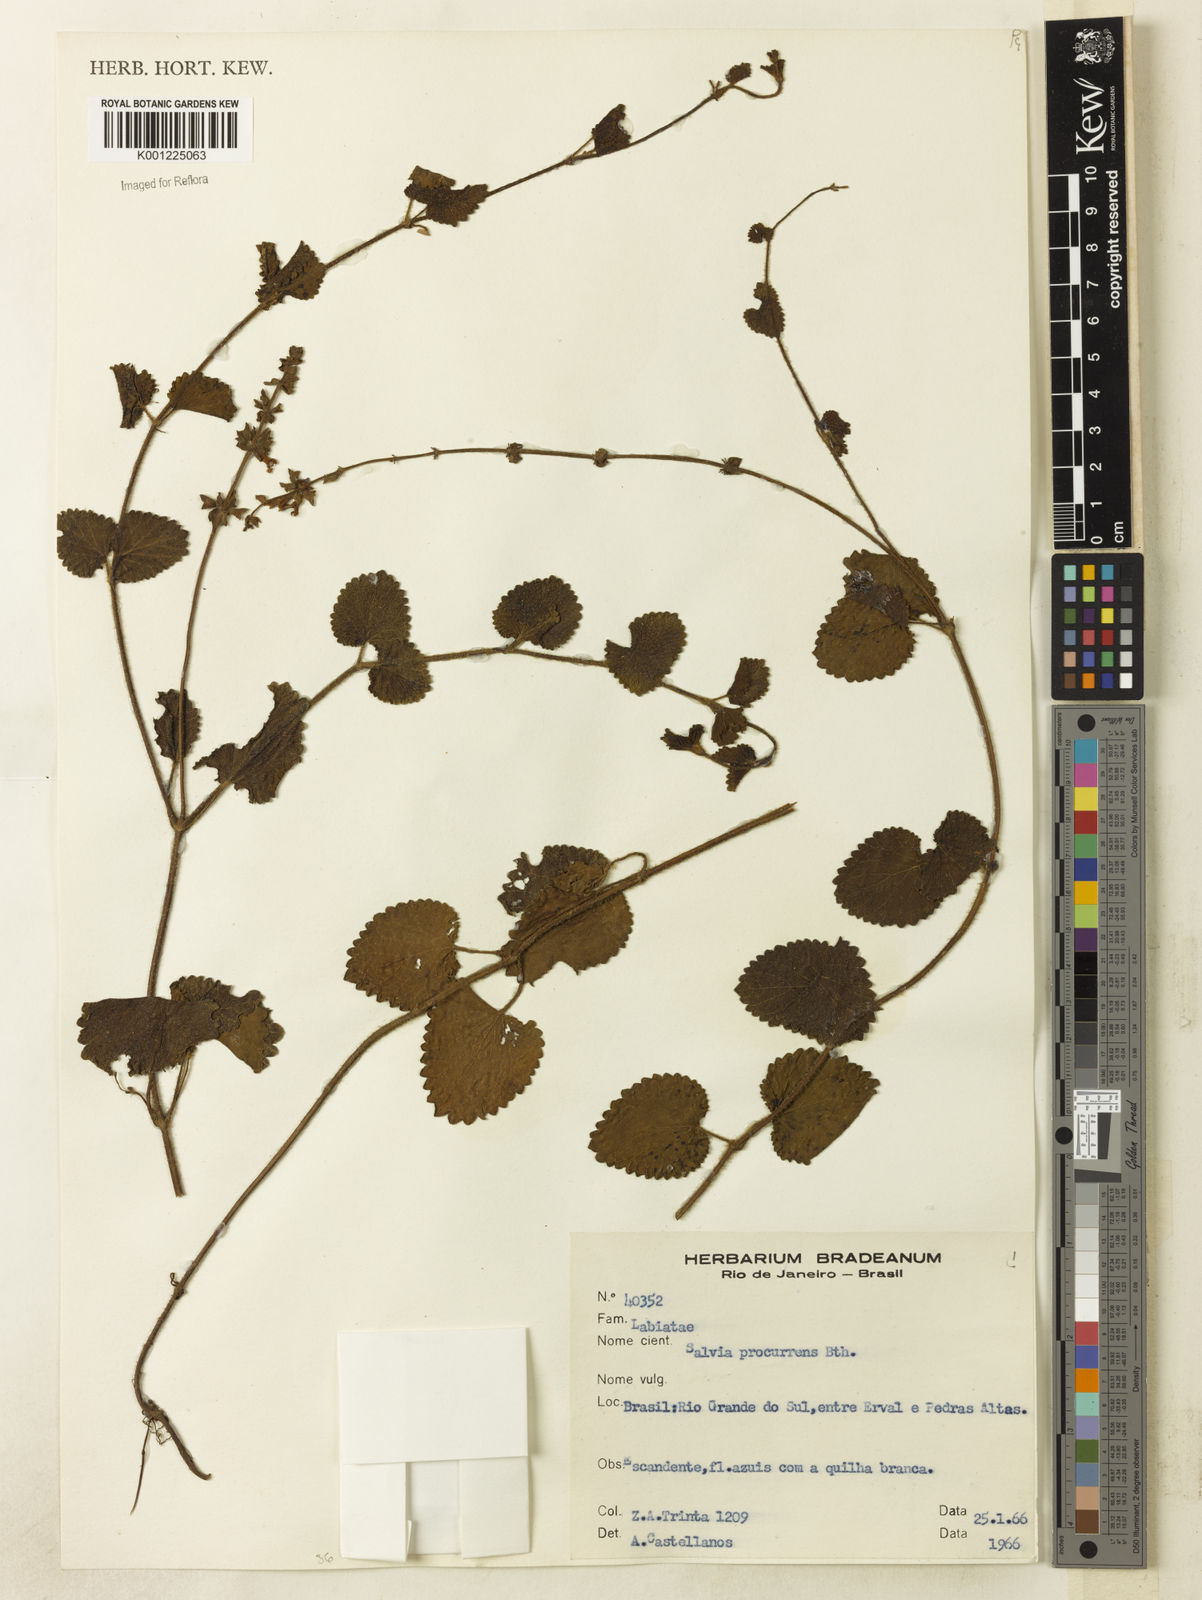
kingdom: Plantae
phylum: Tracheophyta
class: Magnoliopsida
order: Lamiales
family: Lamiaceae
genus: Salvia
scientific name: Salvia procurrens
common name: Blue creeper
